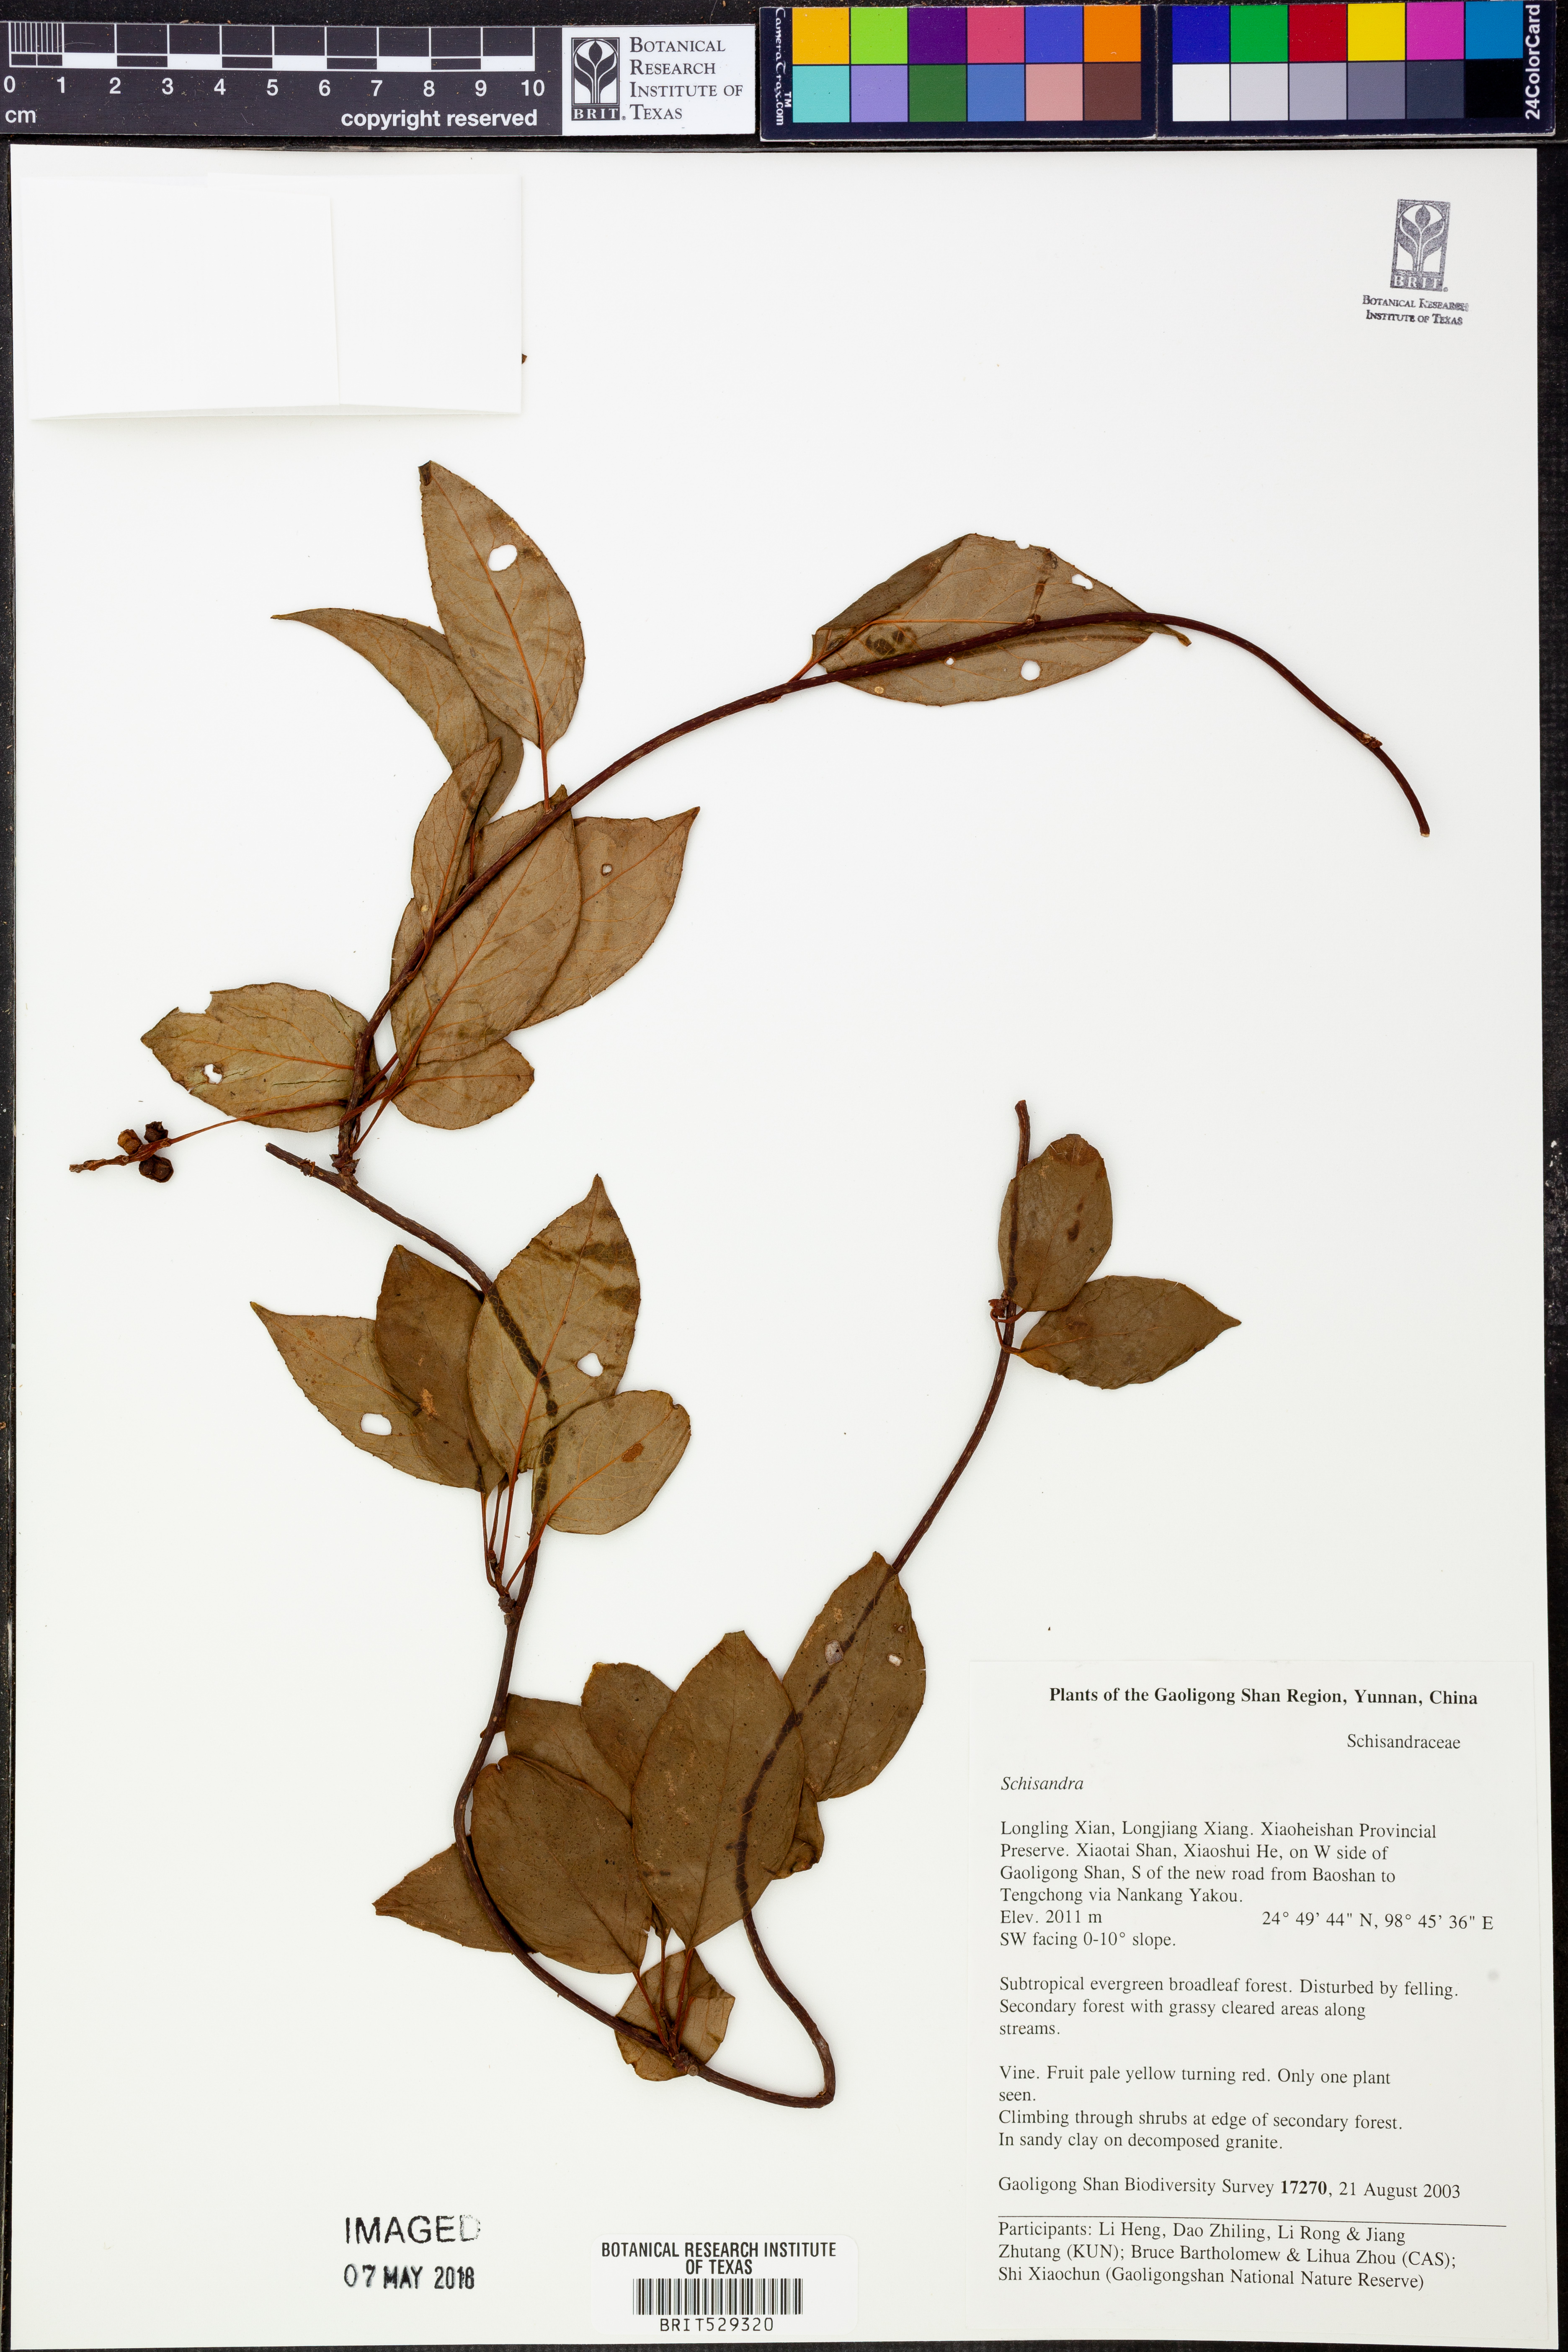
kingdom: Plantae
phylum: Tracheophyta
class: Magnoliopsida
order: Austrobaileyales
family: Schisandraceae
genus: Schisandra
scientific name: Schisandra
